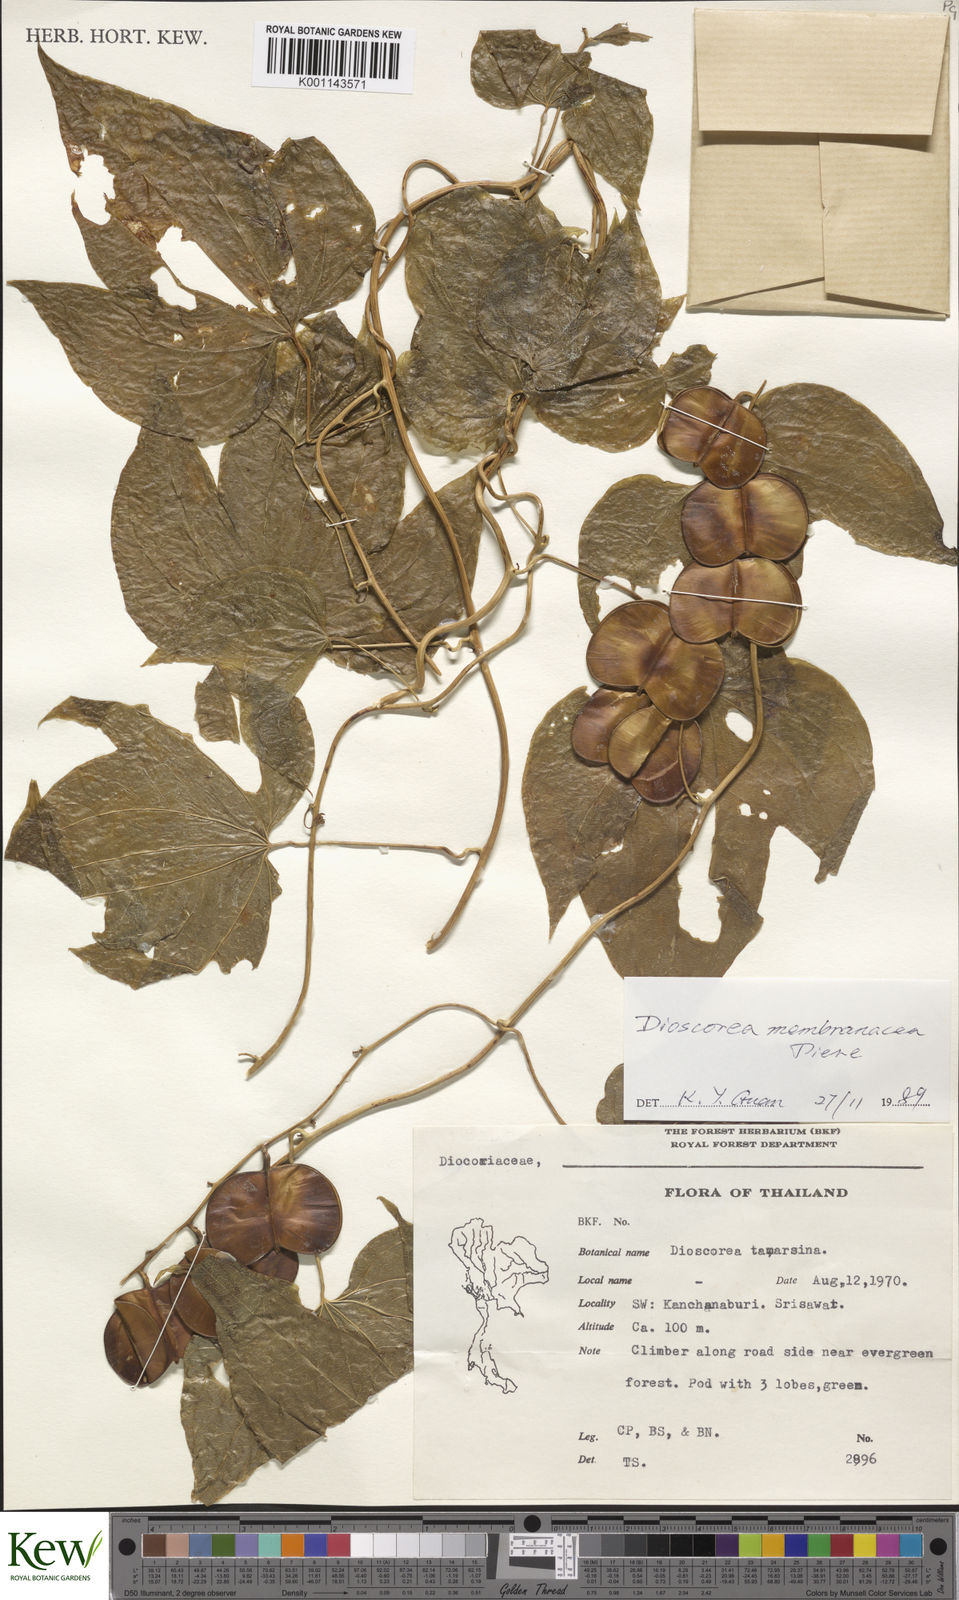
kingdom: Plantae
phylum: Tracheophyta
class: Liliopsida
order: Dioscoreales
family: Dioscoreaceae
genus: Dioscorea
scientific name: Dioscorea membranacea
